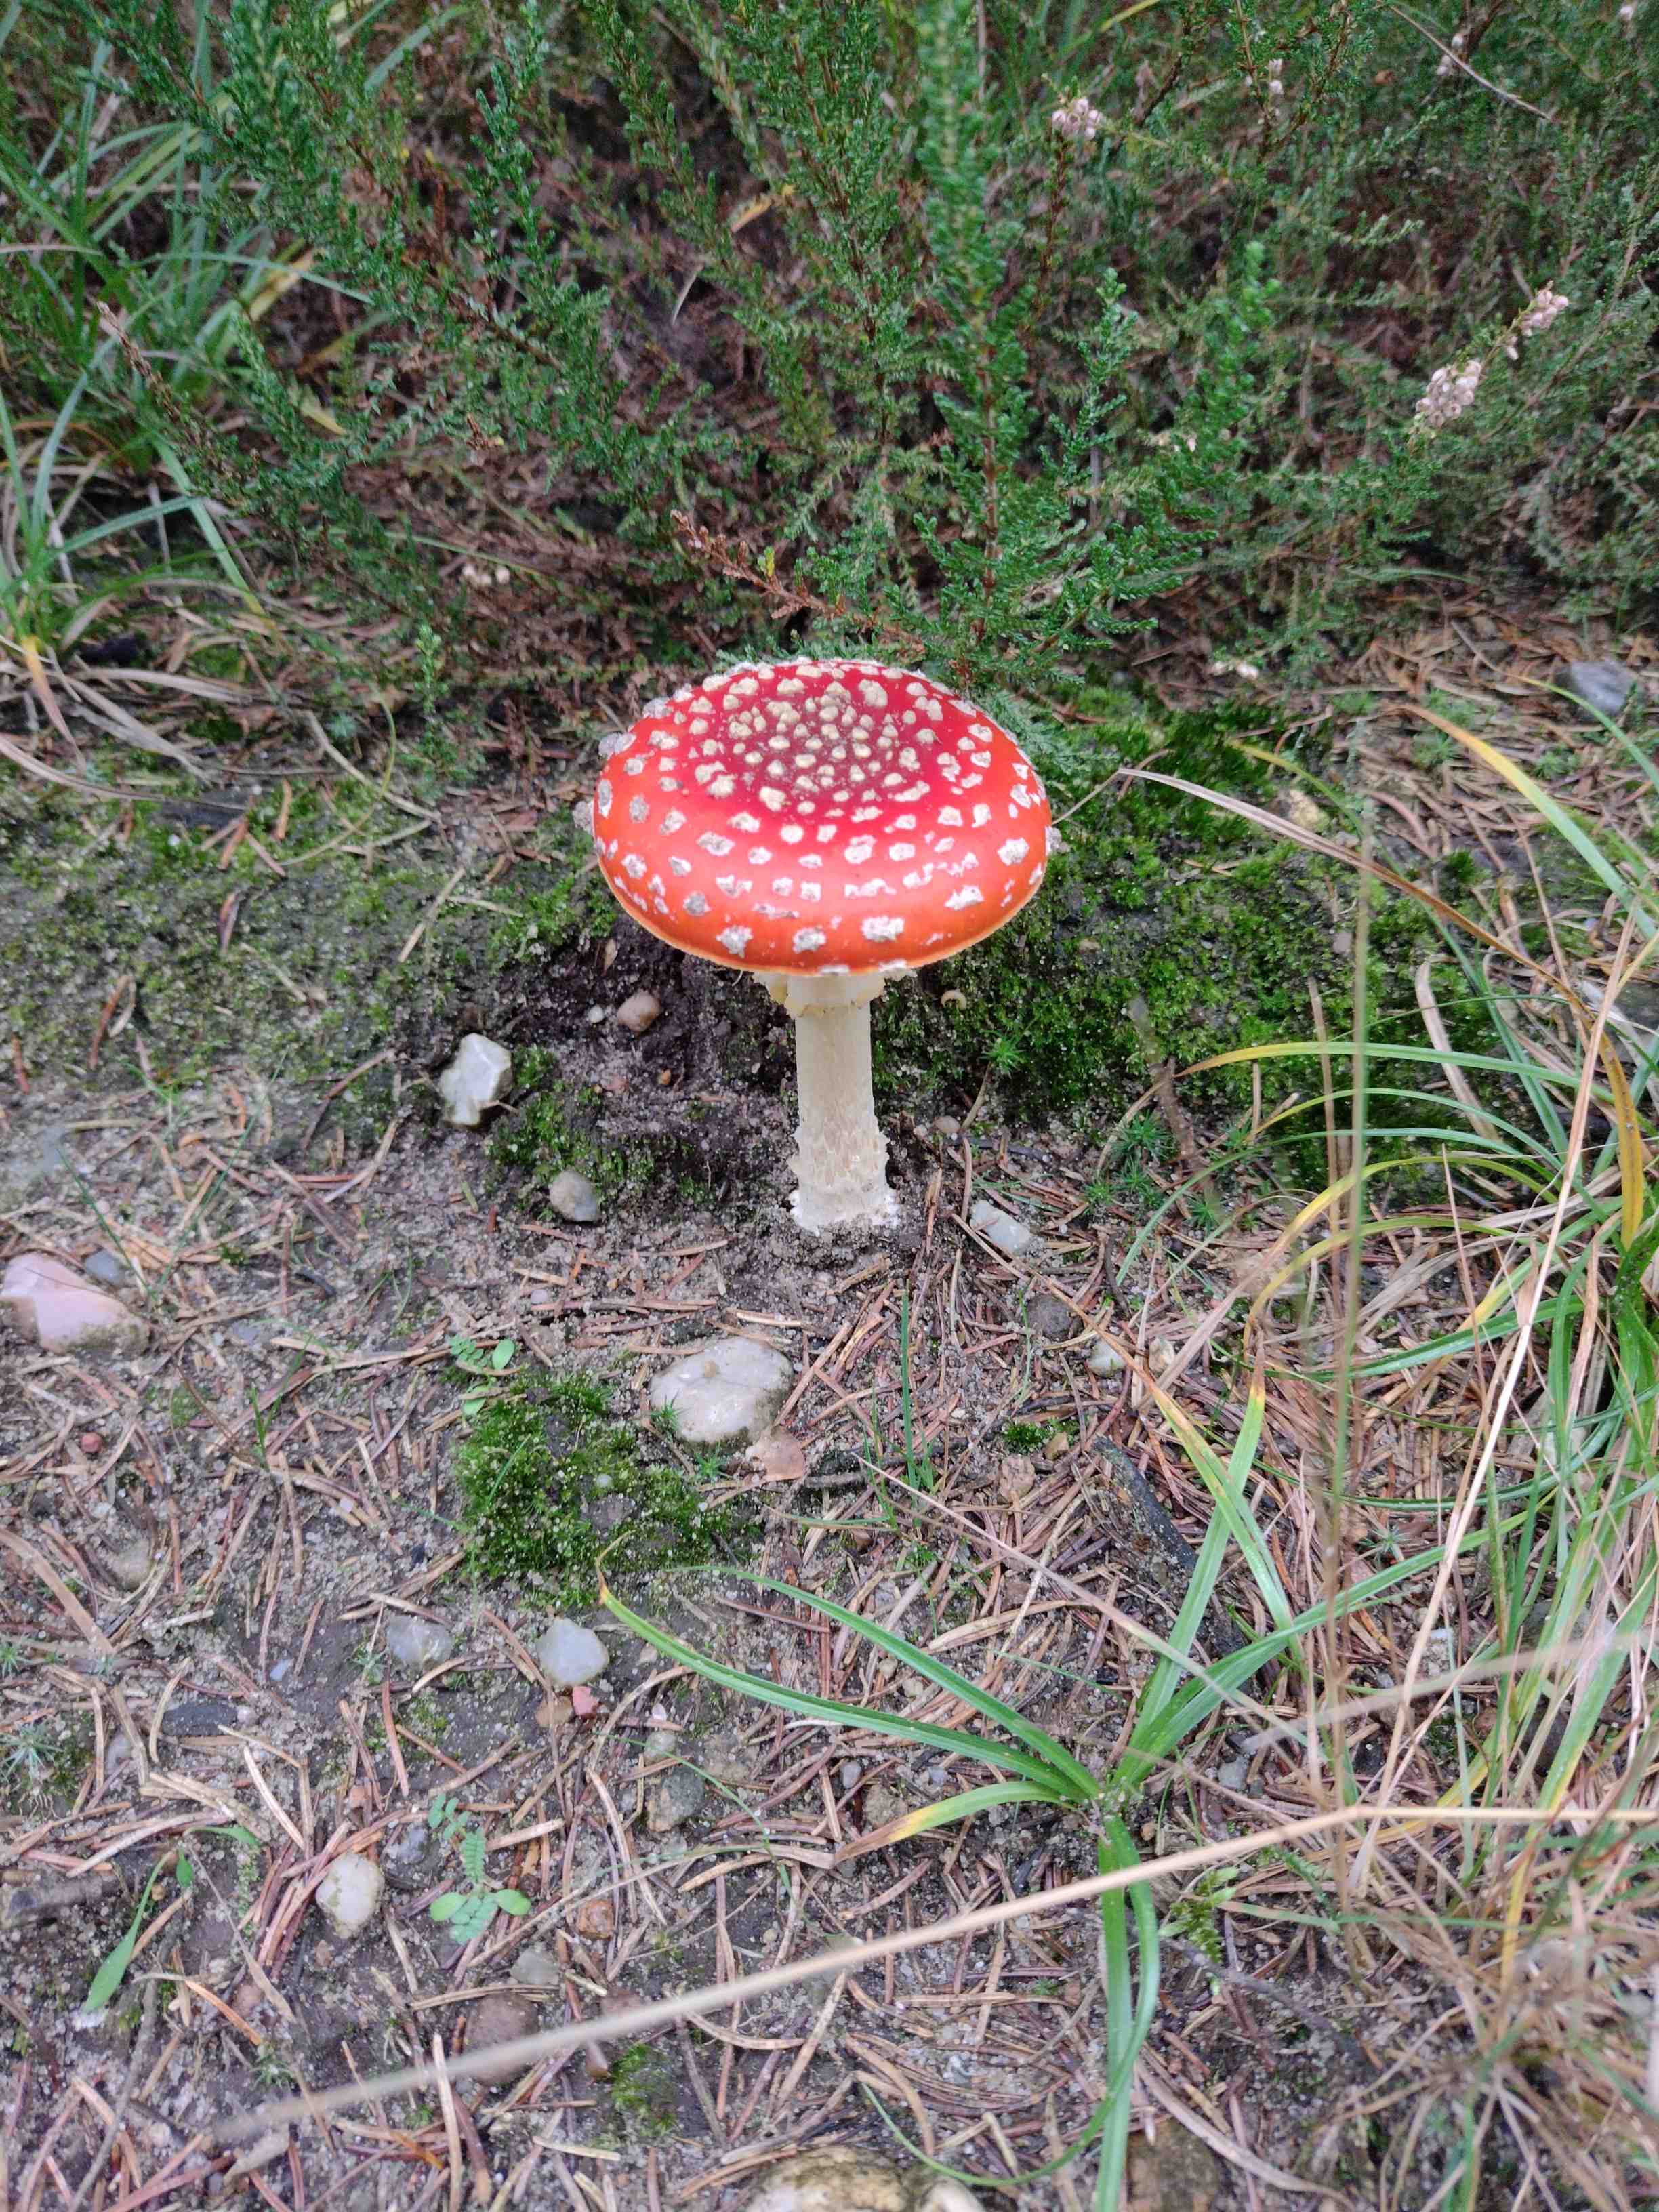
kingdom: Fungi
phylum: Basidiomycota
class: Agaricomycetes
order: Agaricales
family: Amanitaceae
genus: Amanita
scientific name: Amanita muscaria
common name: rød fluesvamp
